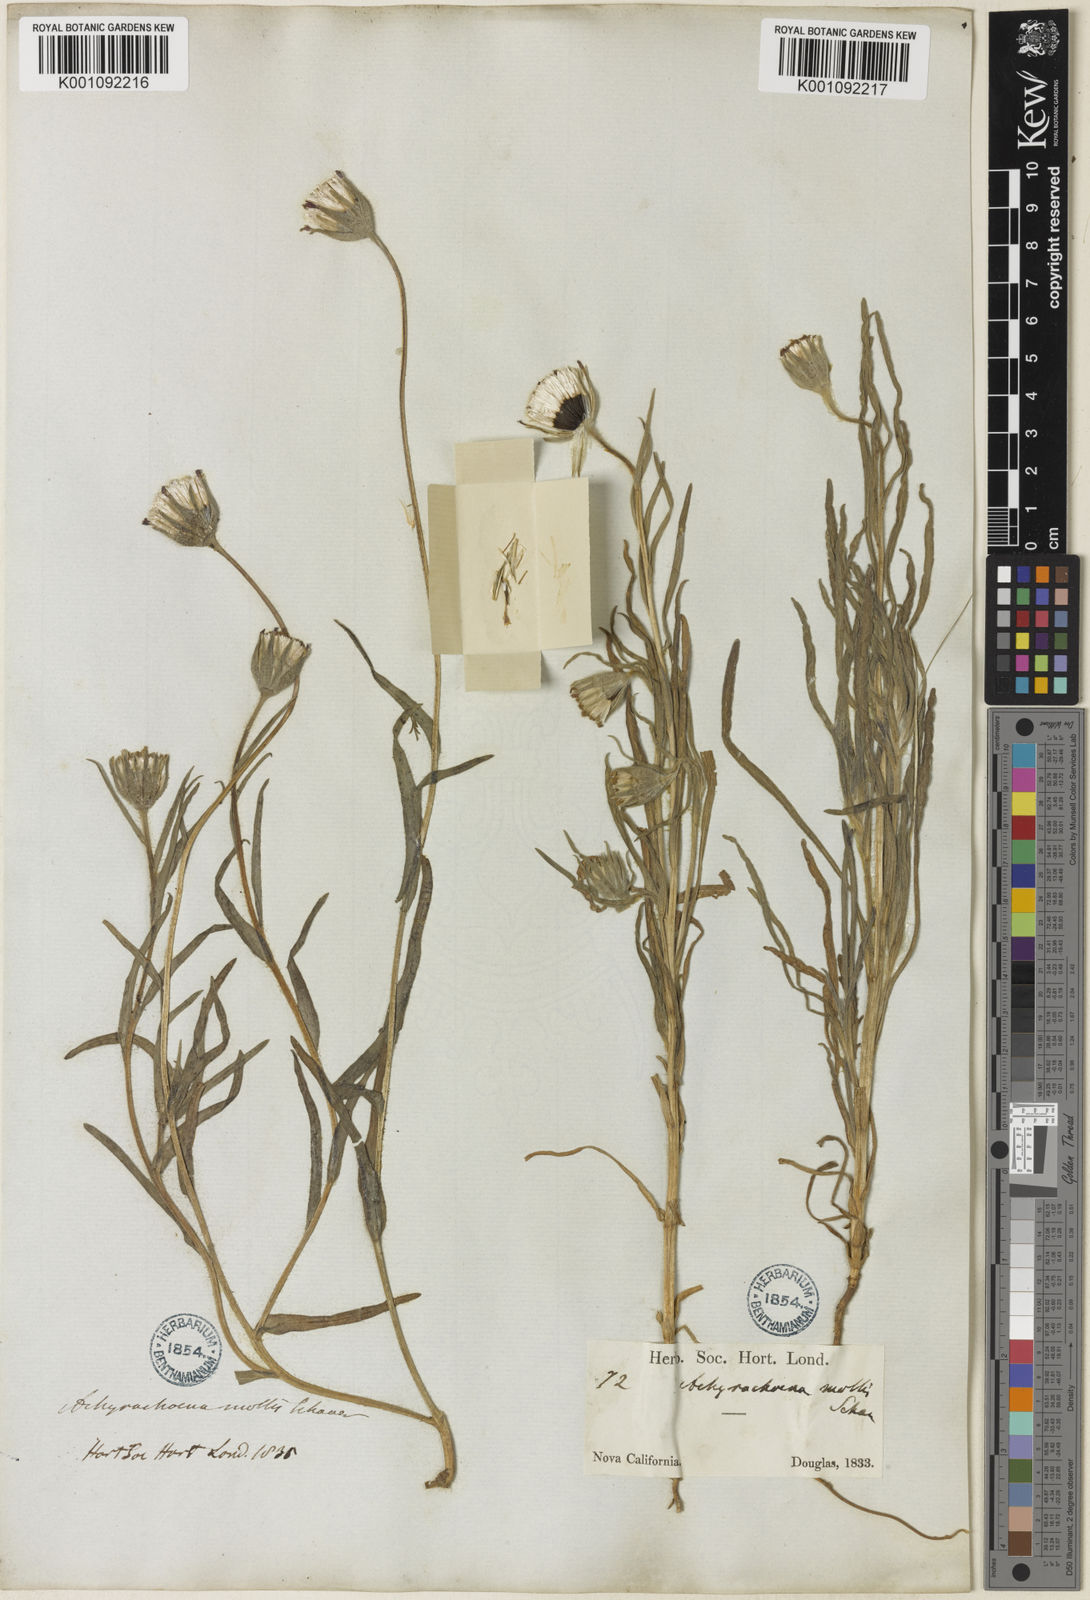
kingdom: Plantae
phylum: Tracheophyta
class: Magnoliopsida
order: Asterales
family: Asteraceae
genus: Achyrachaena
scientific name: Achyrachaena mollis
